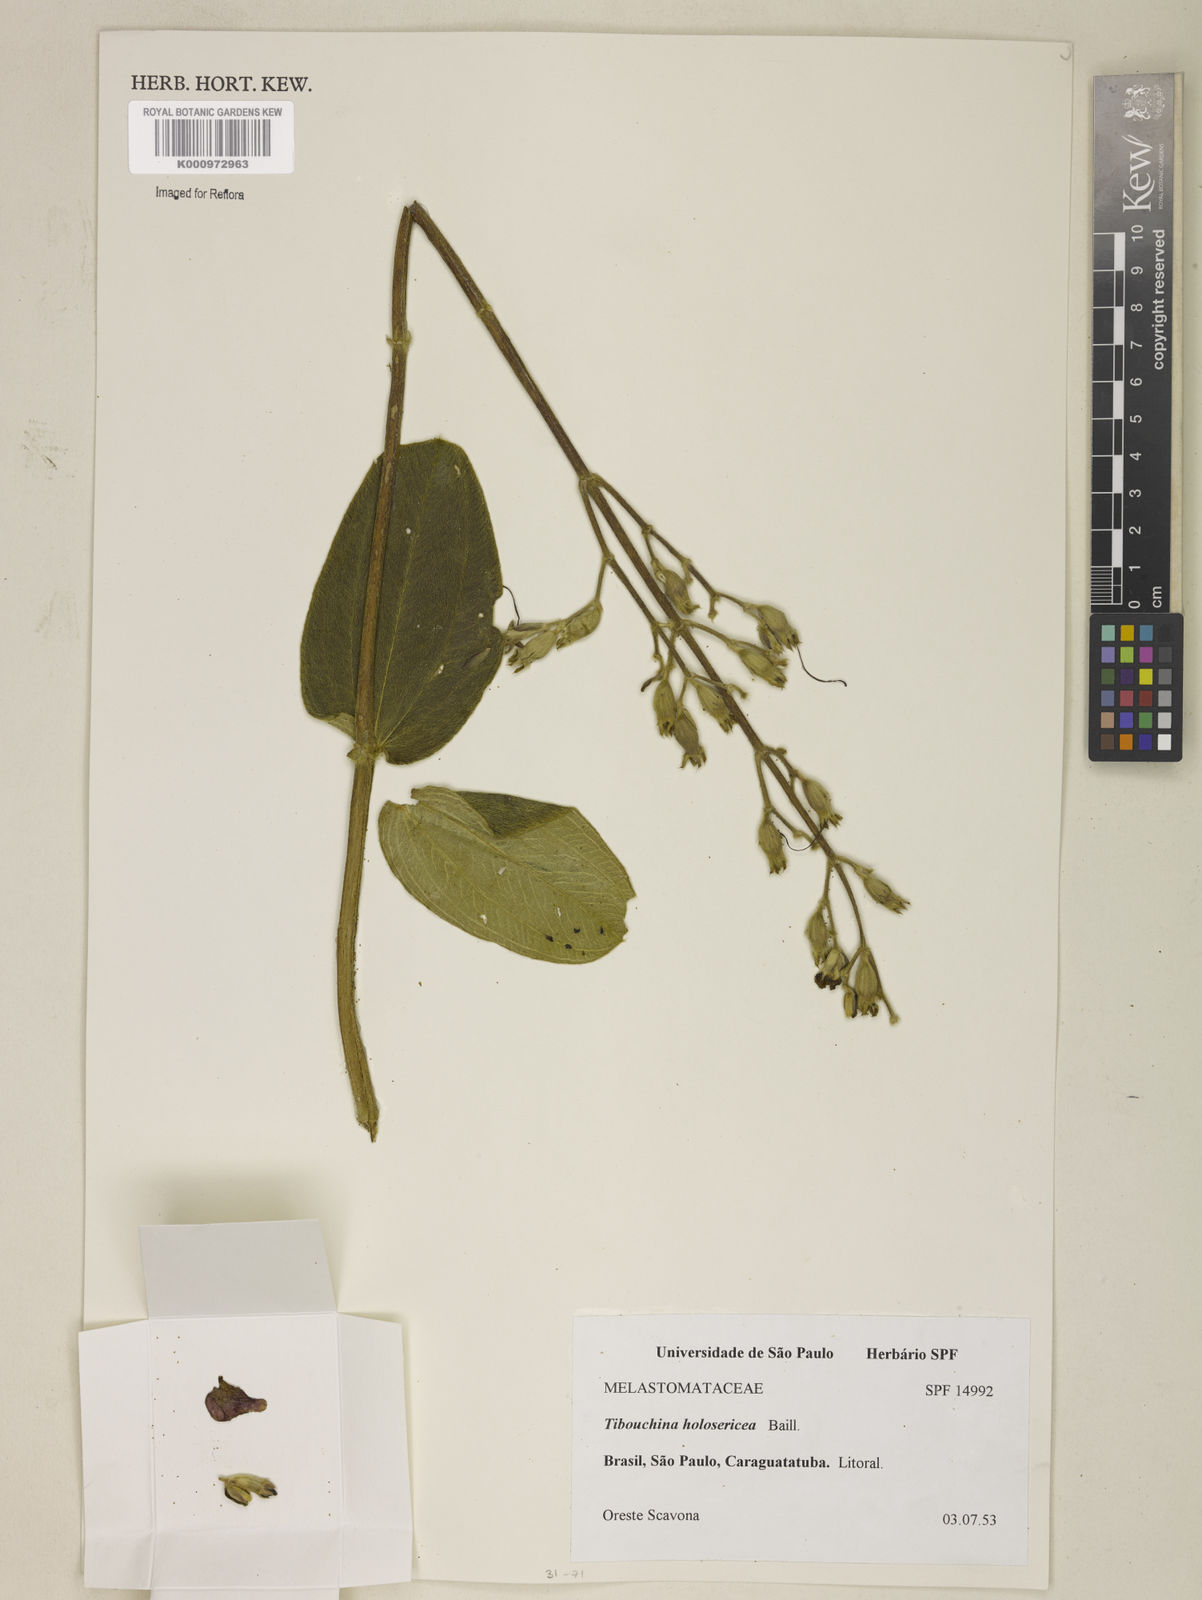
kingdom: Plantae
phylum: Tracheophyta
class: Magnoliopsida
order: Myrtales
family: Melastomataceae
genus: Pleroma
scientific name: Pleroma clavatum
